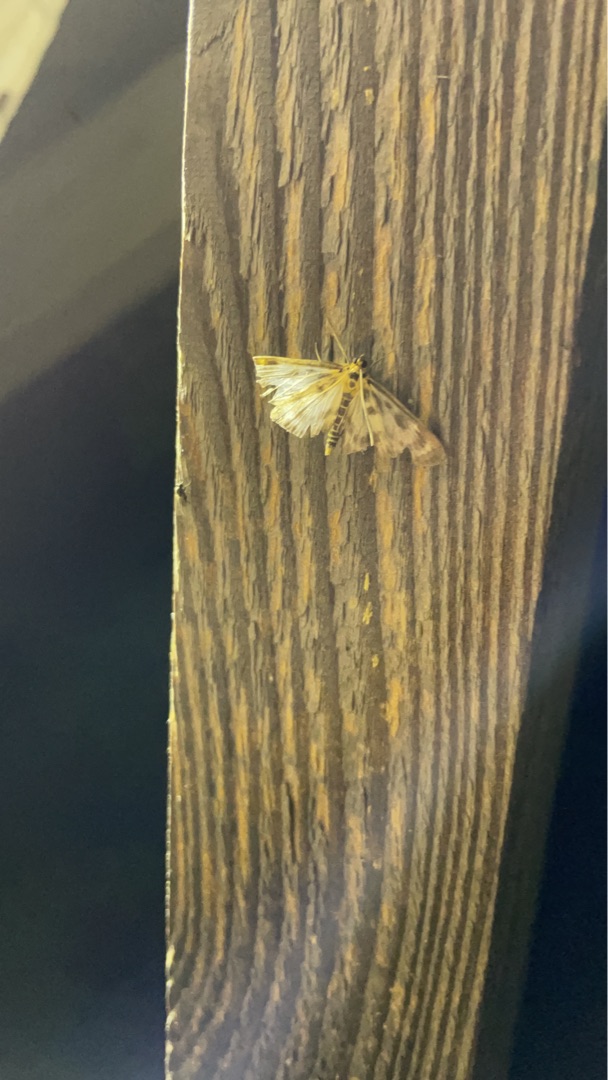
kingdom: Animalia
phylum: Arthropoda
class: Insecta
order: Lepidoptera
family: Crambidae
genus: Anania
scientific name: Anania hortulata
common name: Nældehalvmøl
